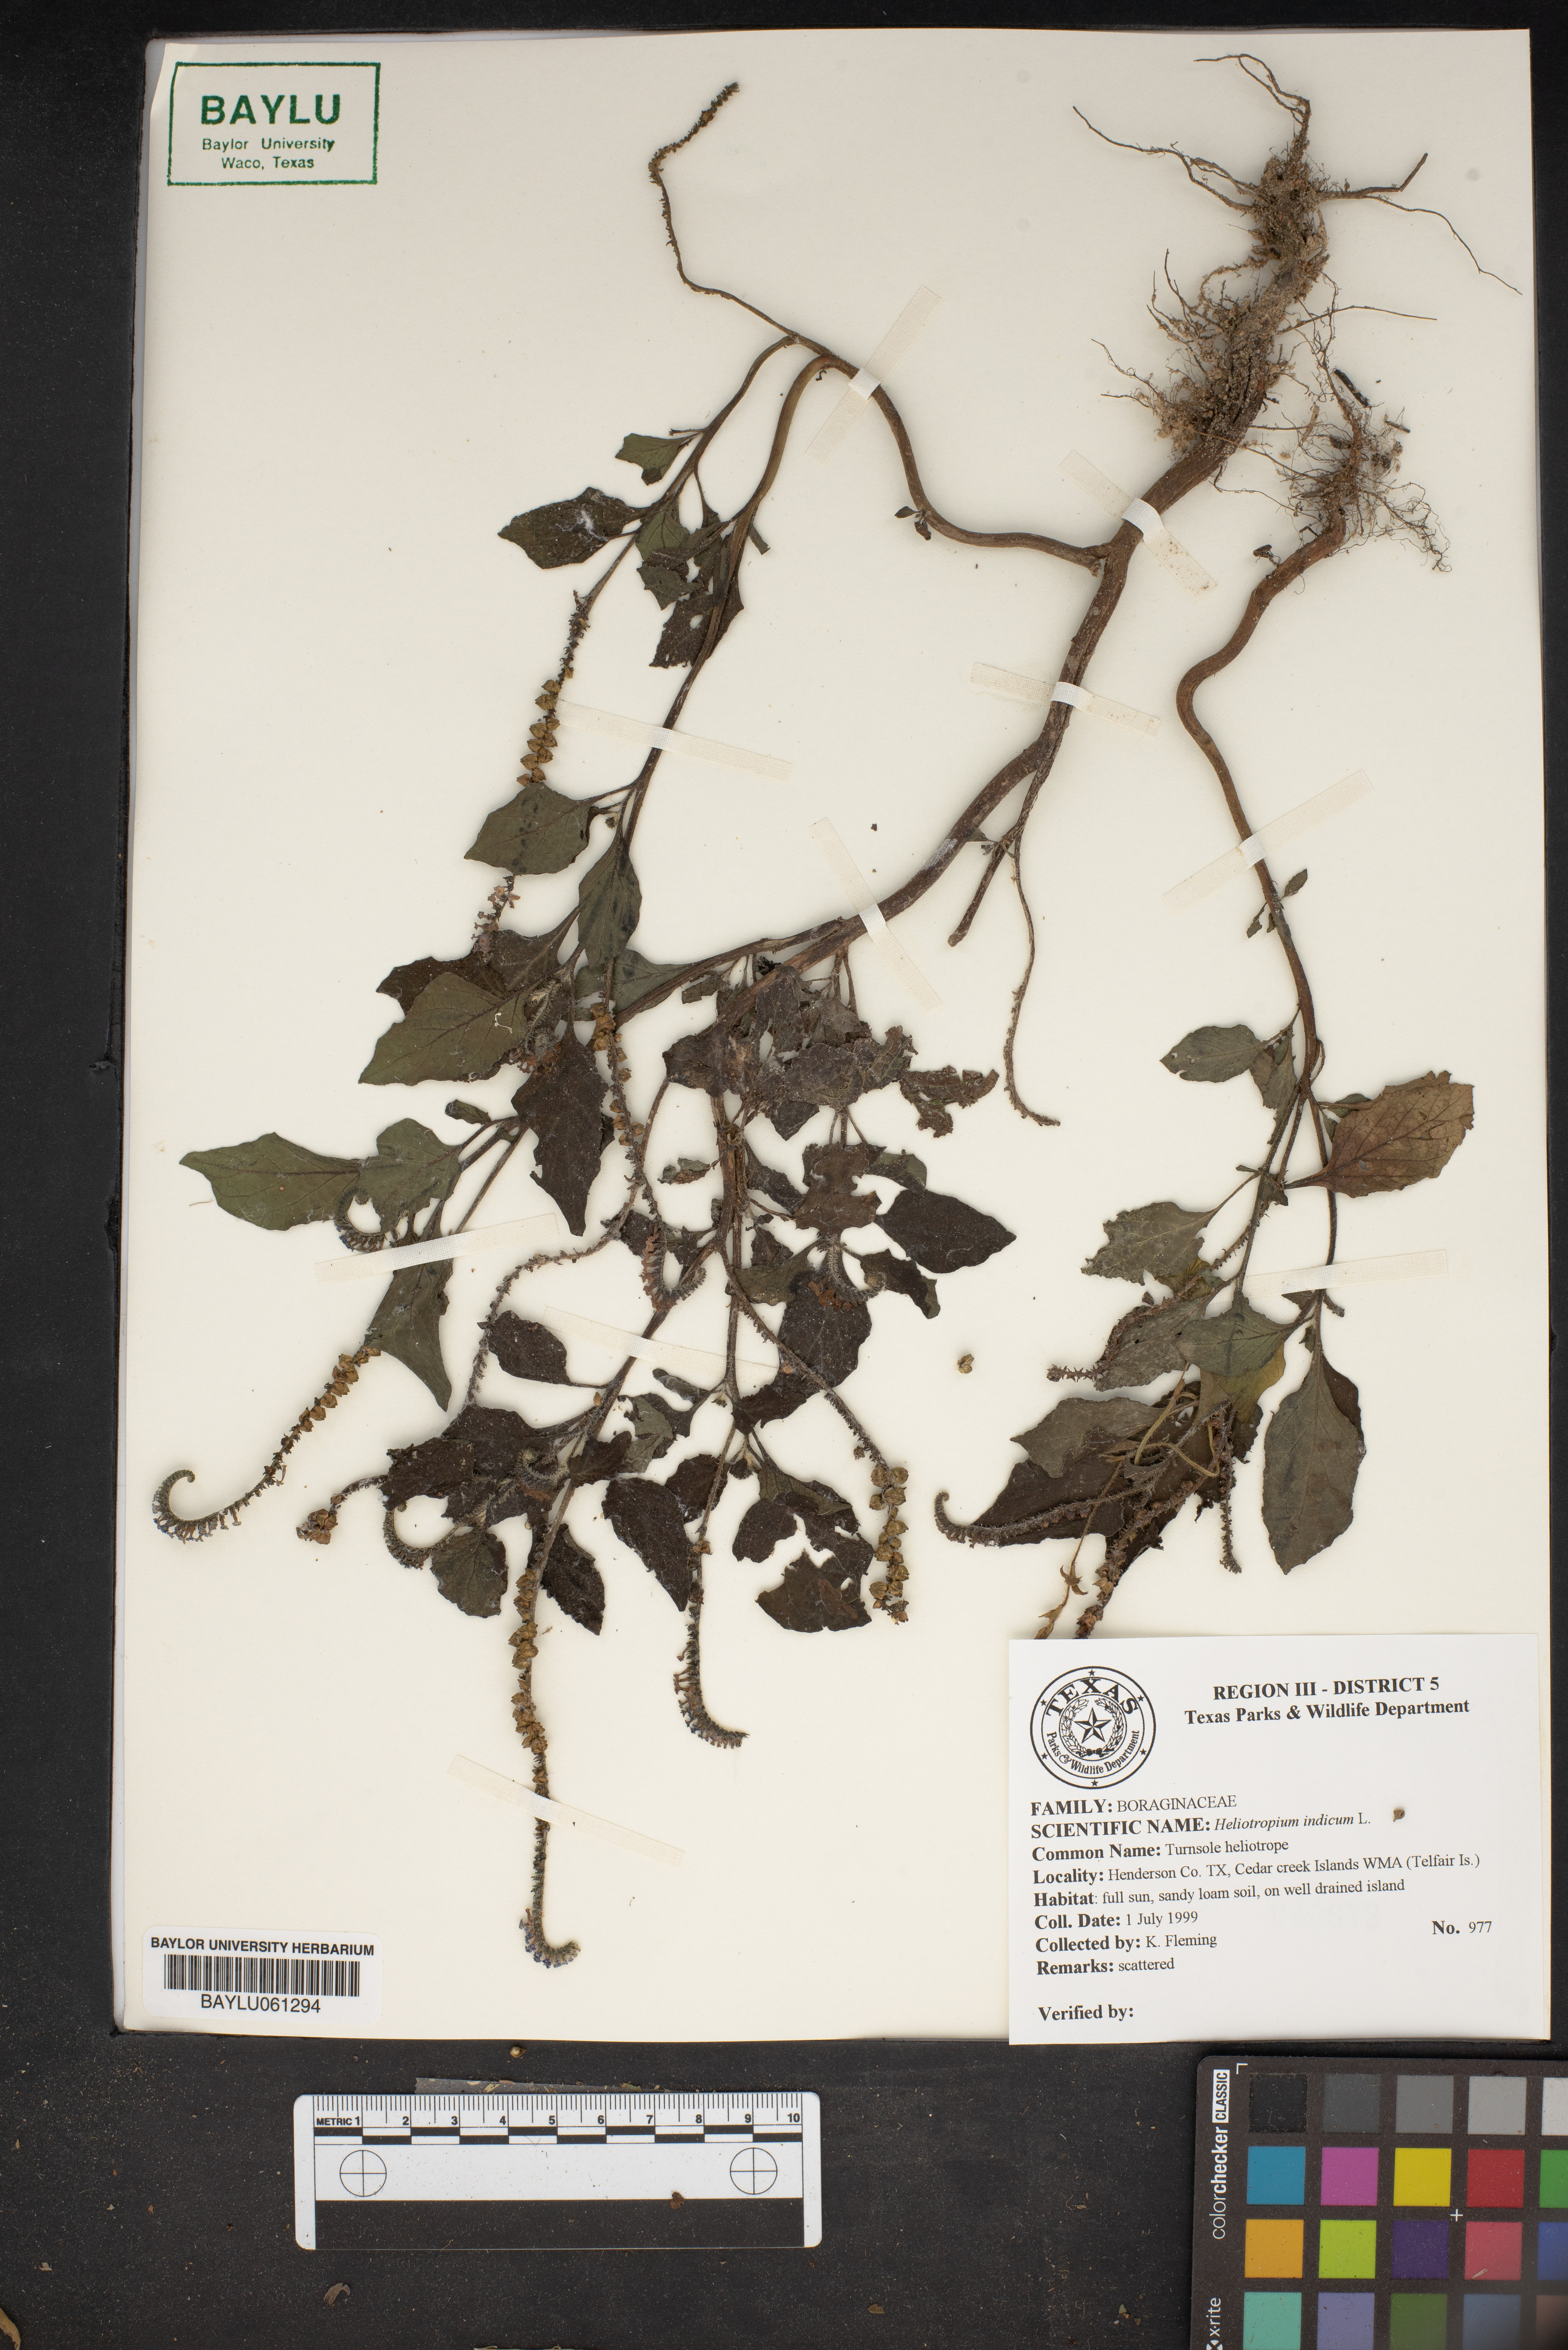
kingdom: Plantae
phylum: Tracheophyta
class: Magnoliopsida
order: Boraginales
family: Heliotropiaceae
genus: Heliotropium
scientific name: Heliotropium indicum
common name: Indian heliotrope
